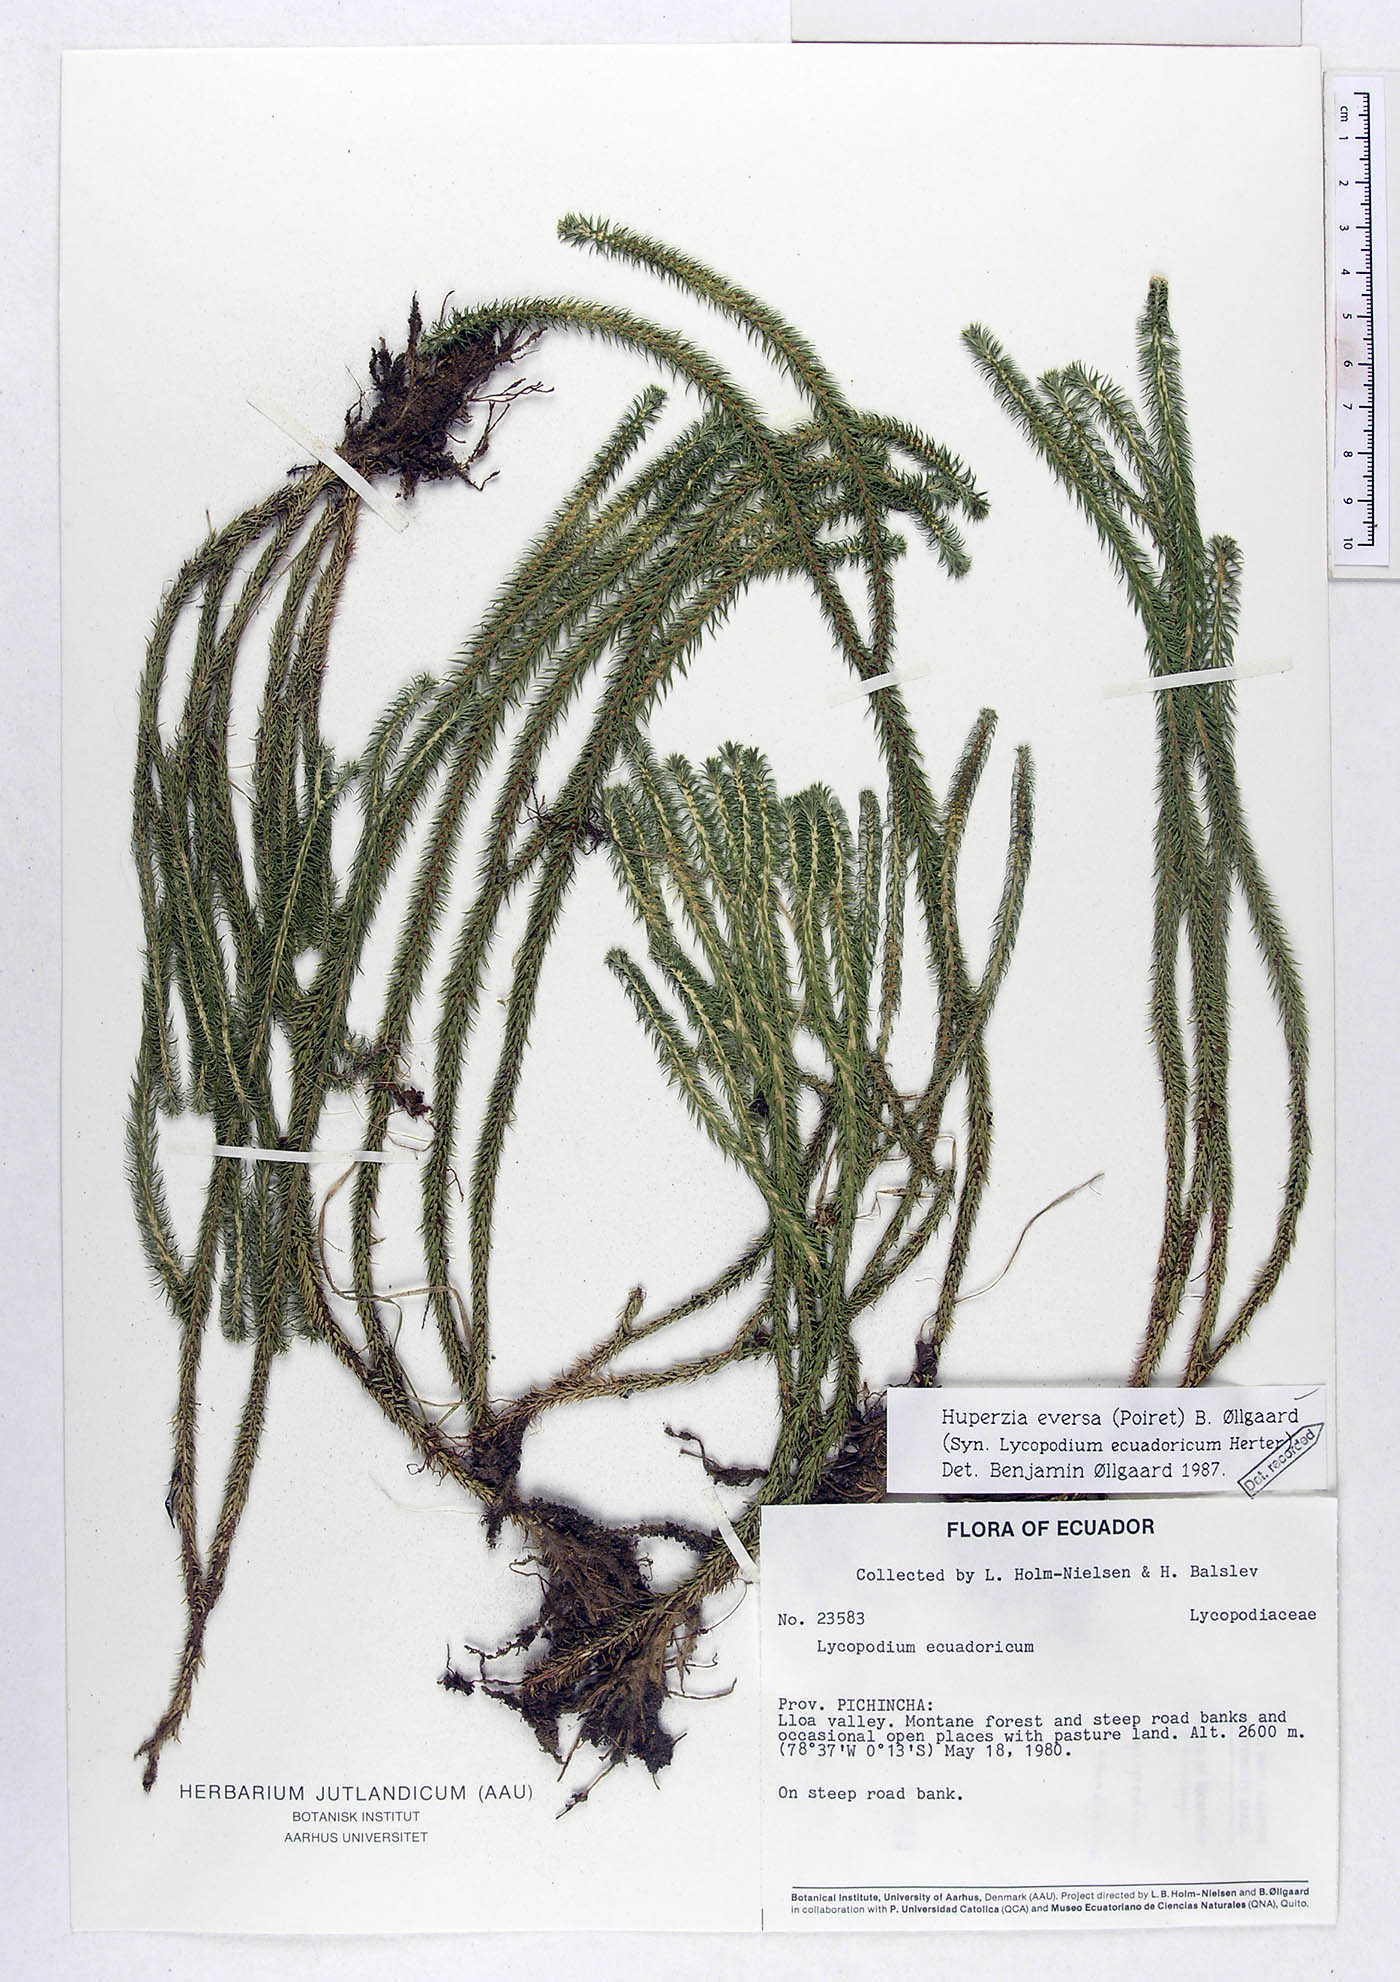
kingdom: Plantae
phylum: Tracheophyta
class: Lycopodiopsida
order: Lycopodiales
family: Lycopodiaceae
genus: Phlegmariurus
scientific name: Phlegmariurus eversus
